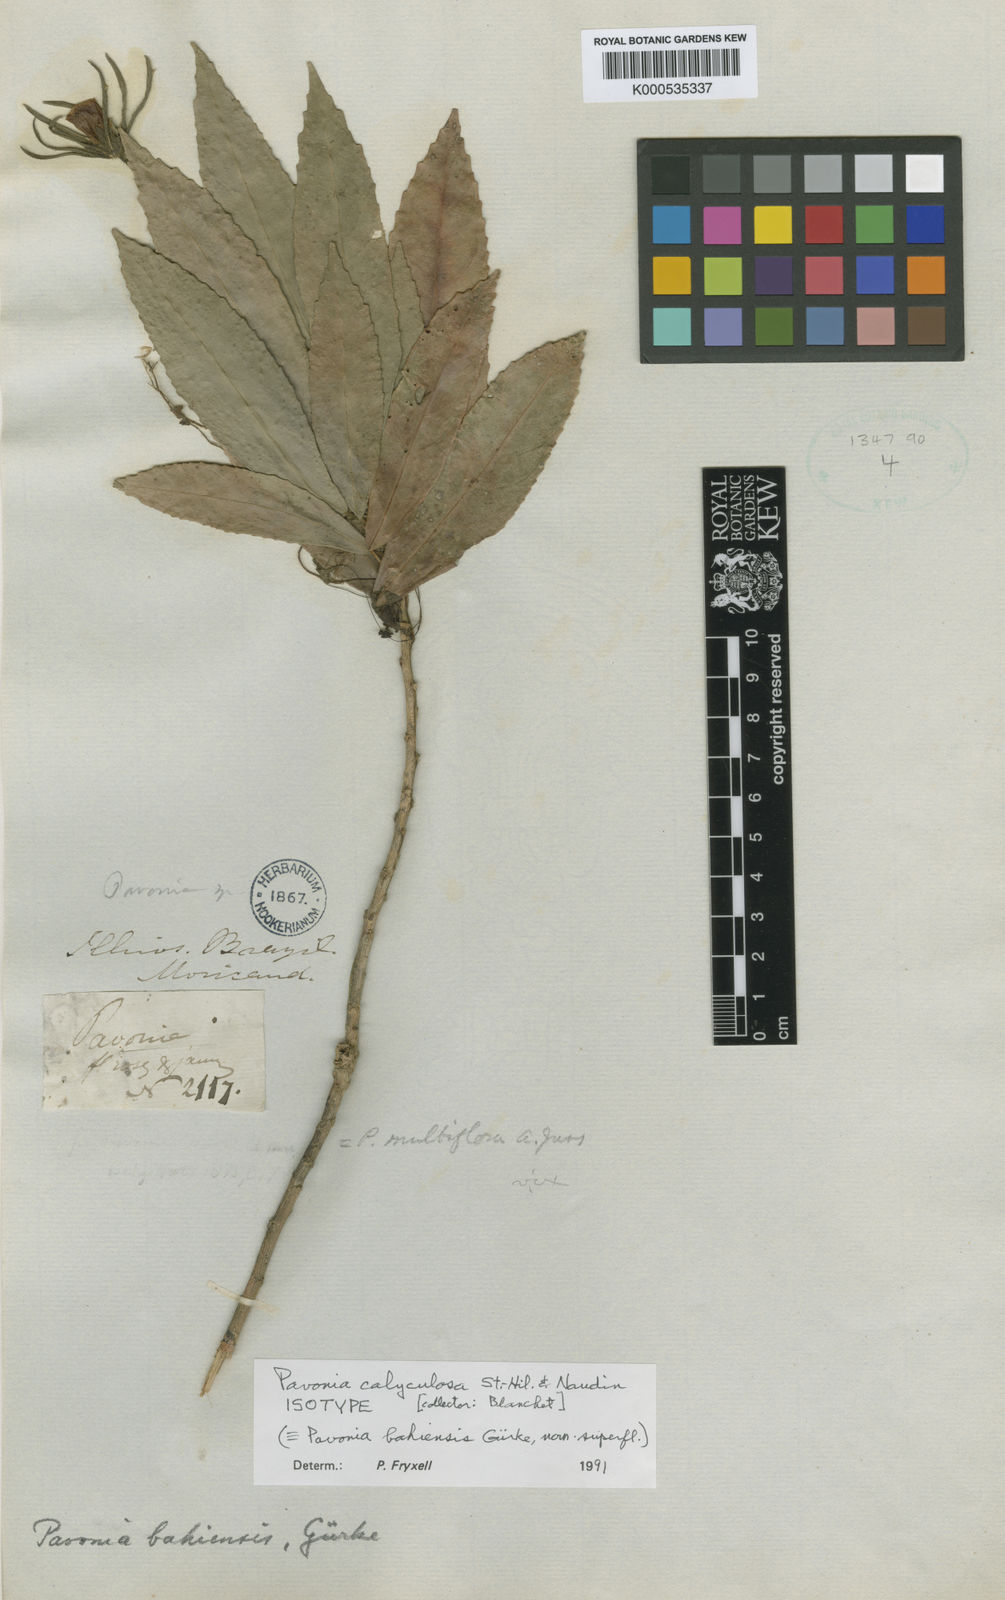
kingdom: Plantae
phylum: Tracheophyta
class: Magnoliopsida
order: Malvales
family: Malvaceae
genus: Pavonia
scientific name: Pavonia calyculosa
